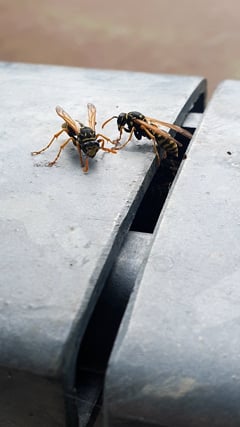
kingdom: Animalia
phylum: Arthropoda
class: Insecta
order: Hymenoptera
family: Eumenidae
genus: Polistes
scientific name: Polistes dominula
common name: Paper wasp
